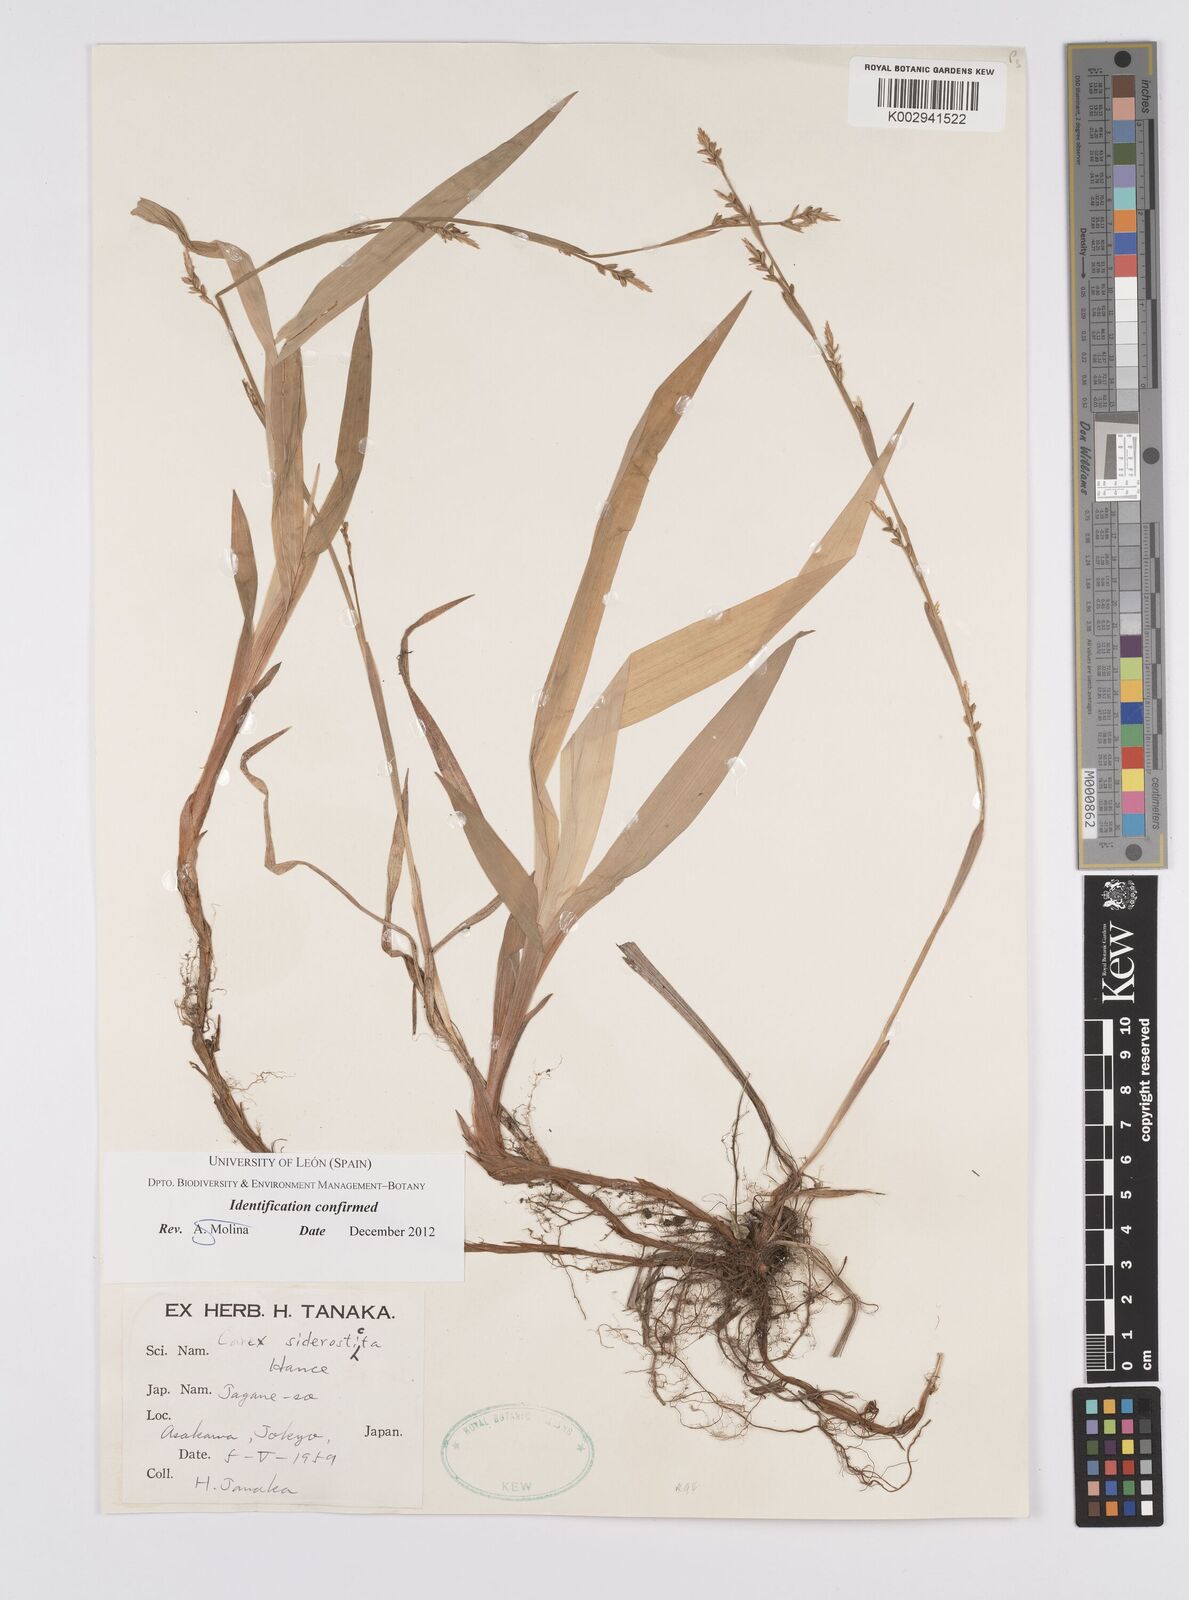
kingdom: Plantae
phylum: Tracheophyta
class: Liliopsida
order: Poales
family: Cyperaceae
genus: Carex
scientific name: Carex siderosticta
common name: Broadleaf sedge
